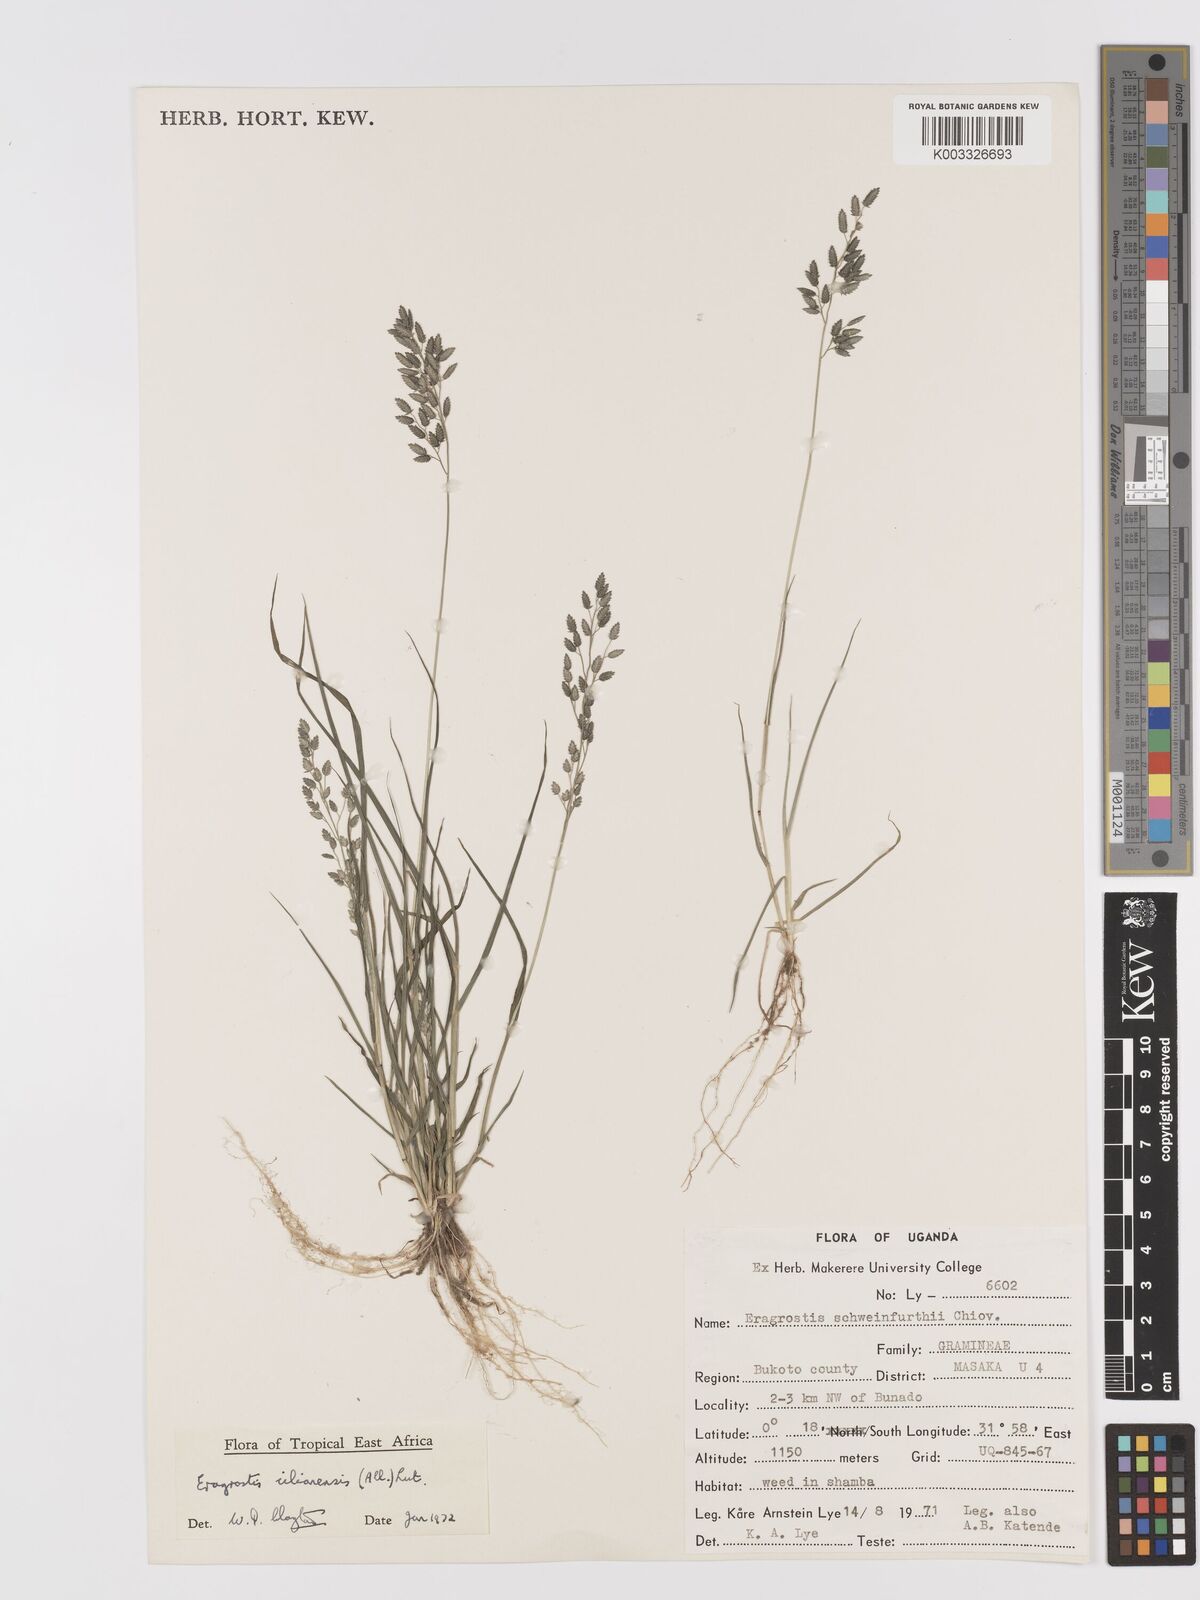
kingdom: Plantae
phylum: Tracheophyta
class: Liliopsida
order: Poales
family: Poaceae
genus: Eragrostis
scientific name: Eragrostis cilianensis
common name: Stinkgrass
